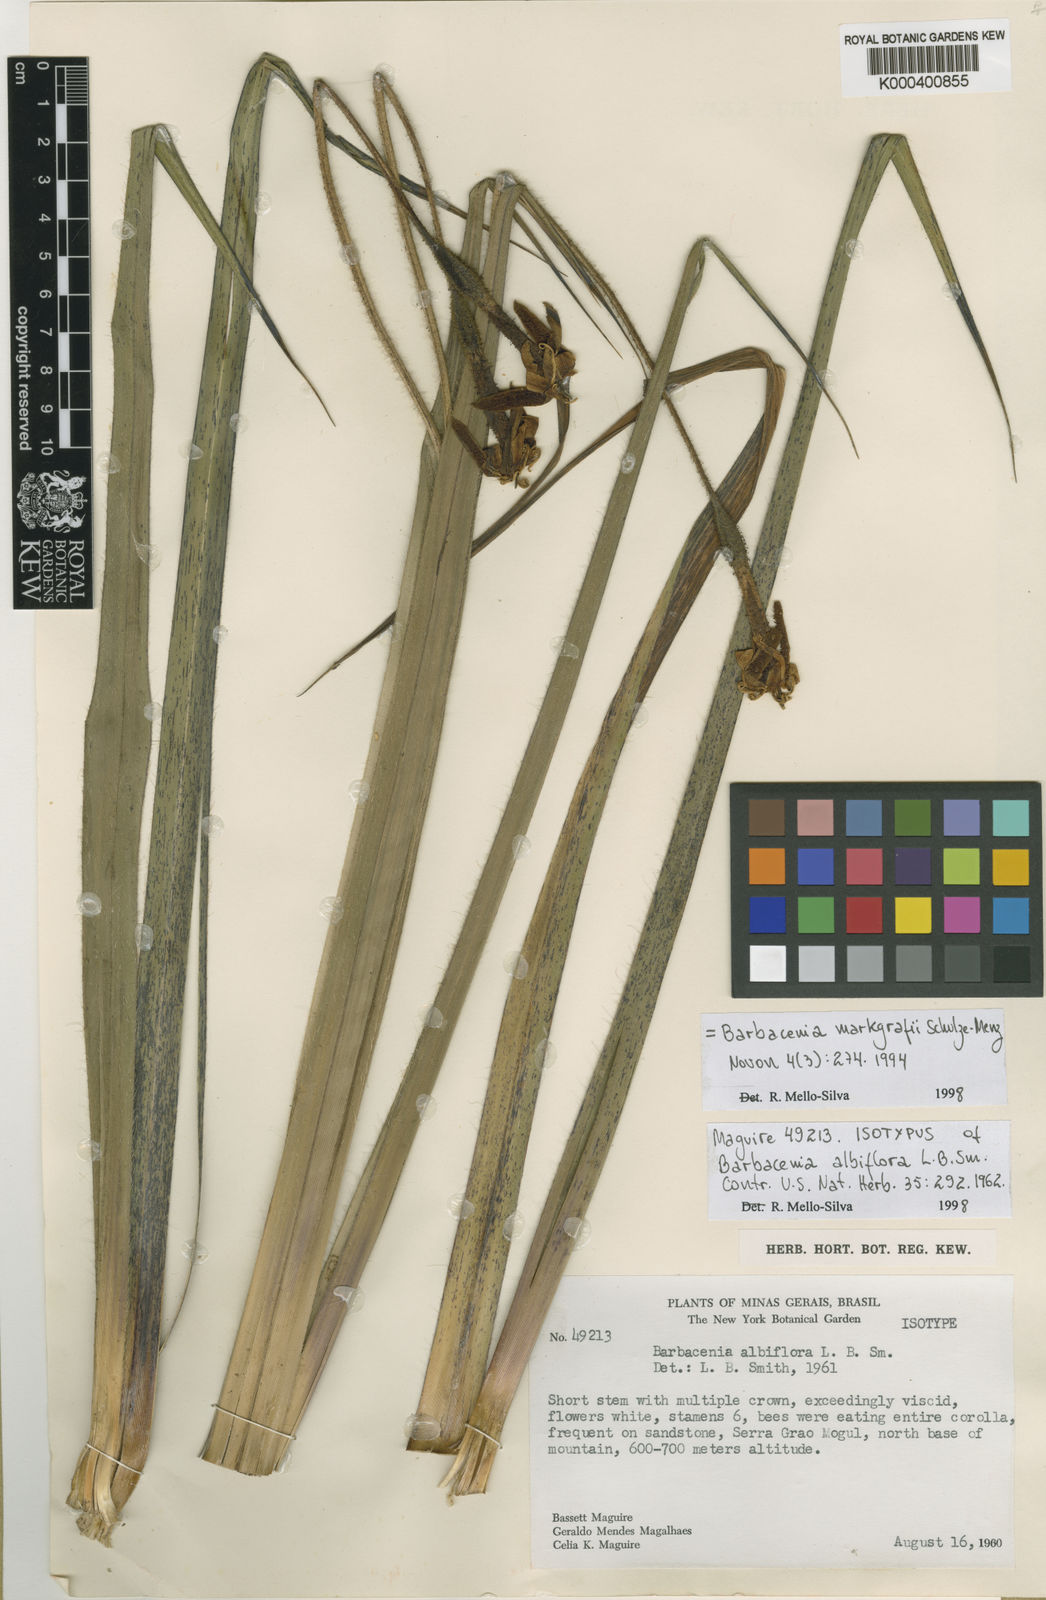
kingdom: Plantae
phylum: Tracheophyta
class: Liliopsida
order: Pandanales
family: Velloziaceae
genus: Barbacenia
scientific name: Barbacenia markgrafii
